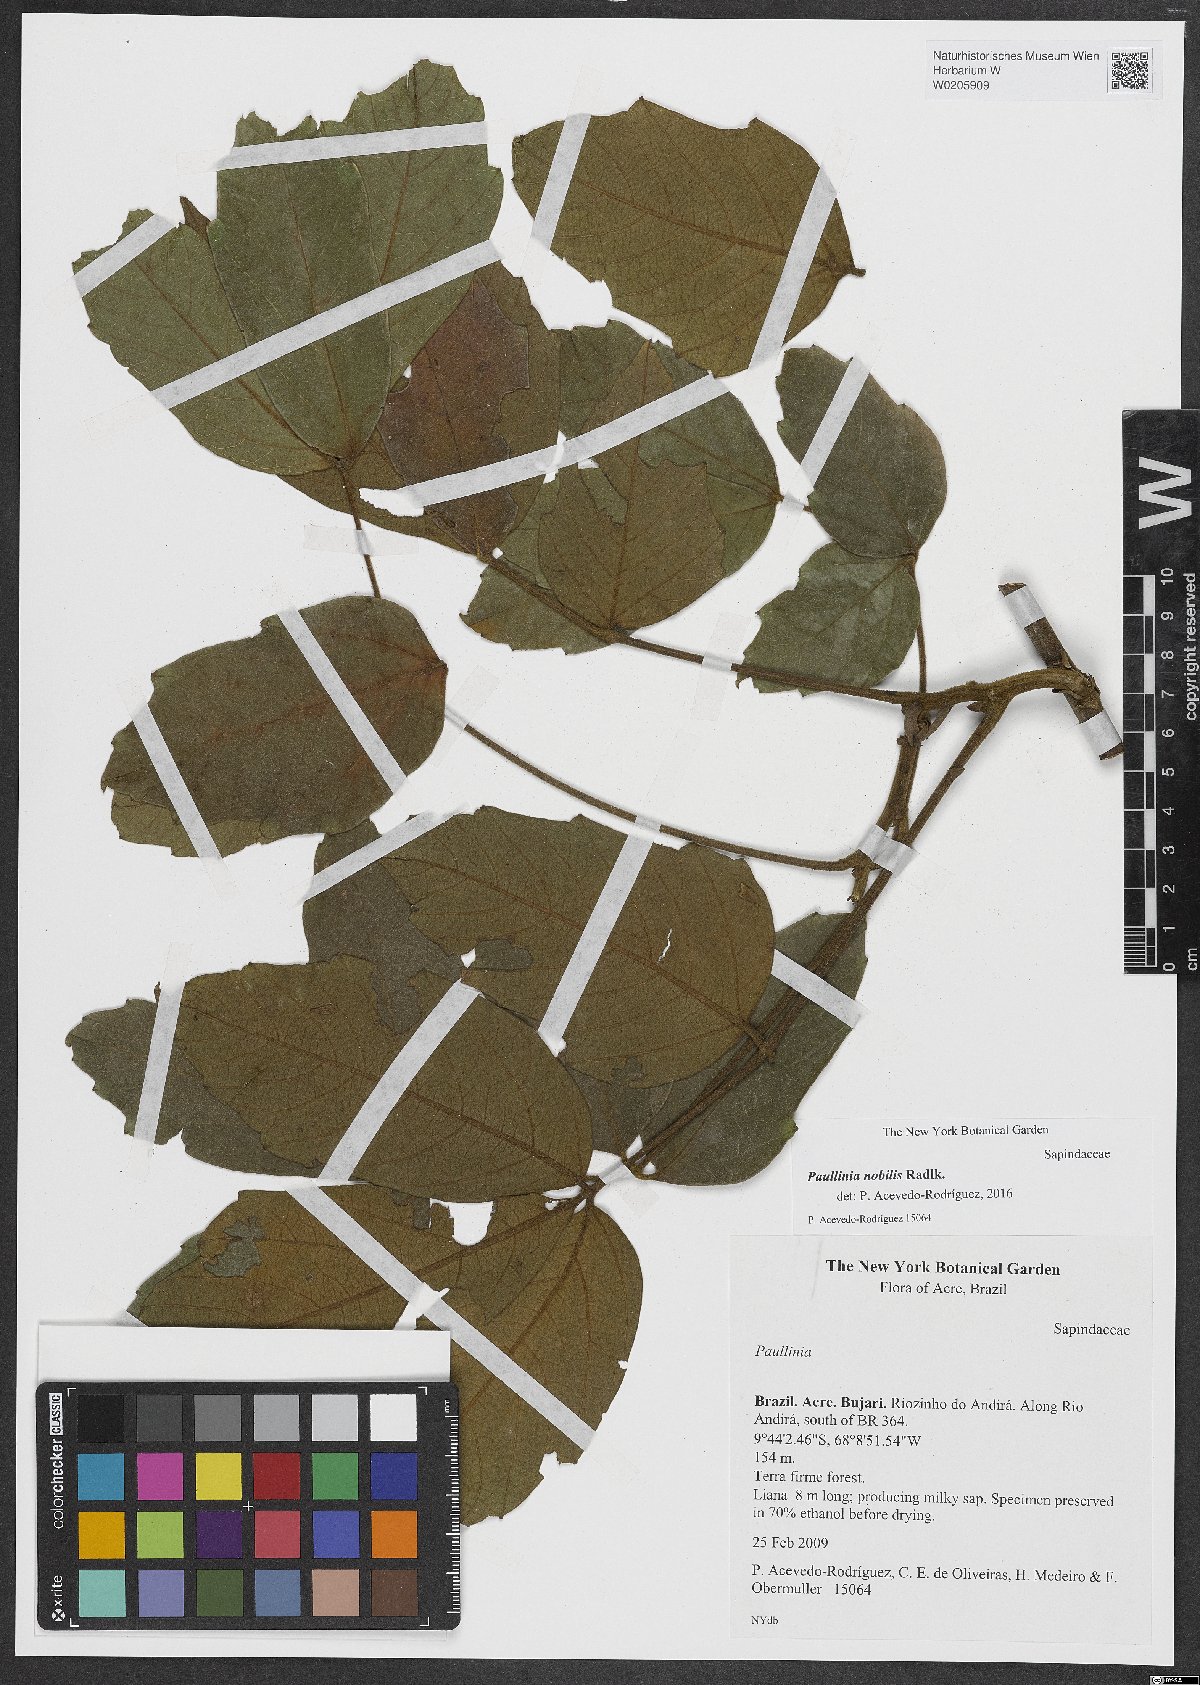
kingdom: Plantae
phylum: Tracheophyta
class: Magnoliopsida
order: Sapindales
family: Sapindaceae
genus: Paullinia
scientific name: Paullinia nobilis
